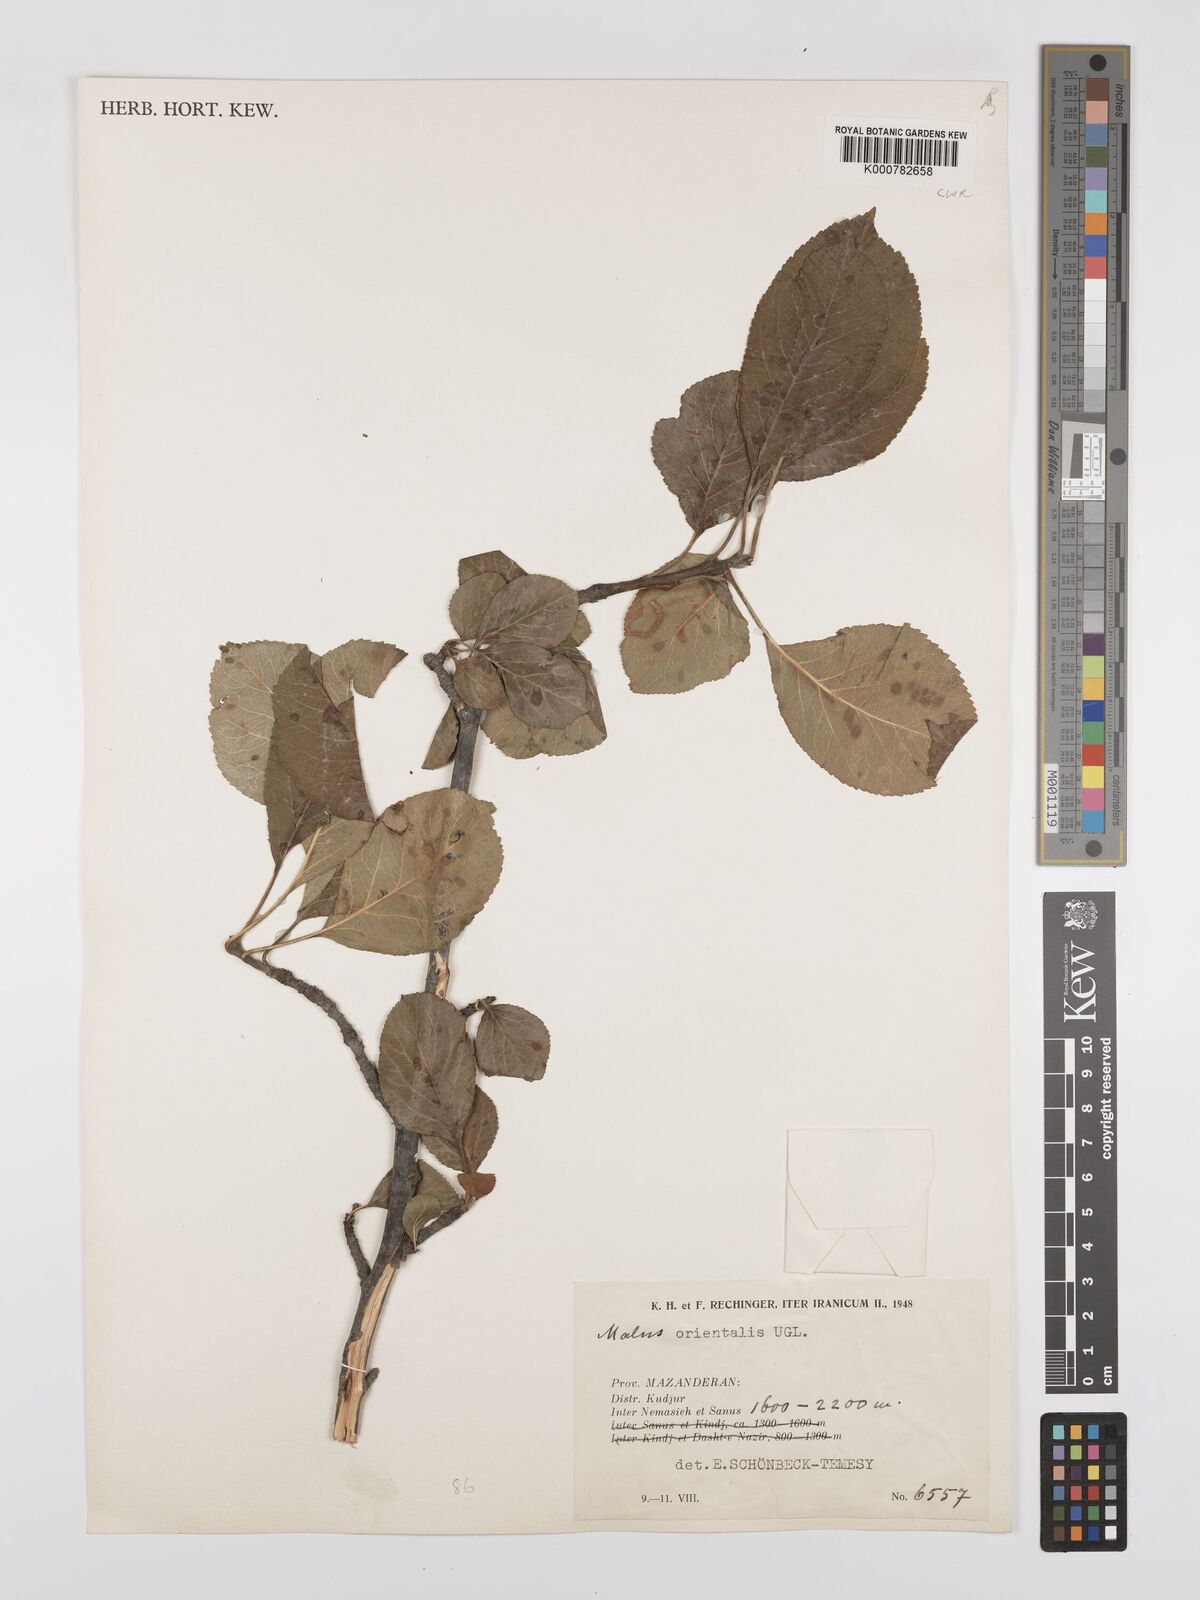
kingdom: Plantae
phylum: Tracheophyta
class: Magnoliopsida
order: Rosales
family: Rosaceae
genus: Malus
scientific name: Malus orientalis
